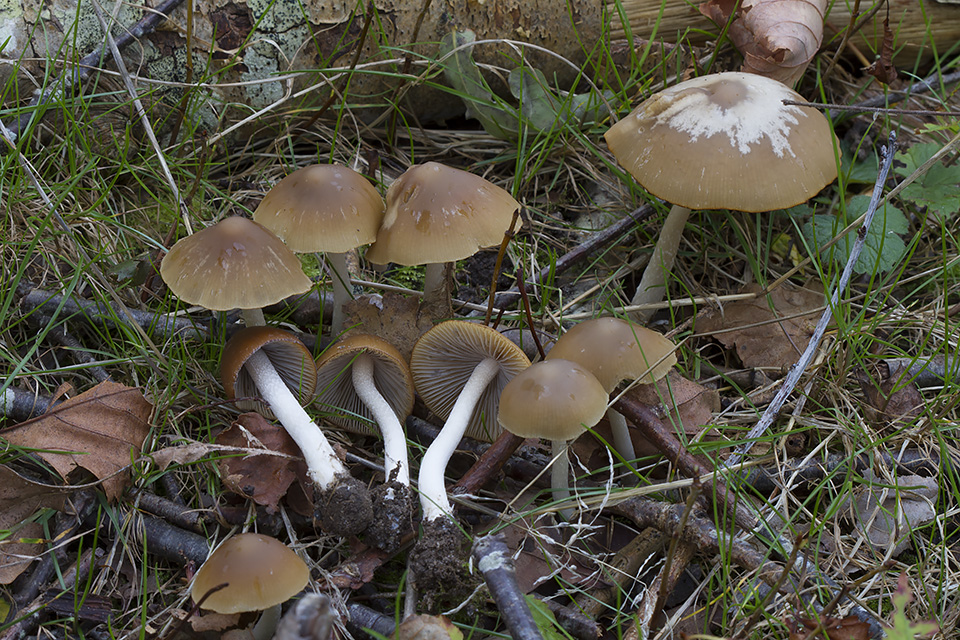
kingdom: Fungi
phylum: Basidiomycota
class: Agaricomycetes
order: Agaricales
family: Psathyrellaceae
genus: Psathyrella
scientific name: Psathyrella fusca
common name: gråbladet mørkhat
